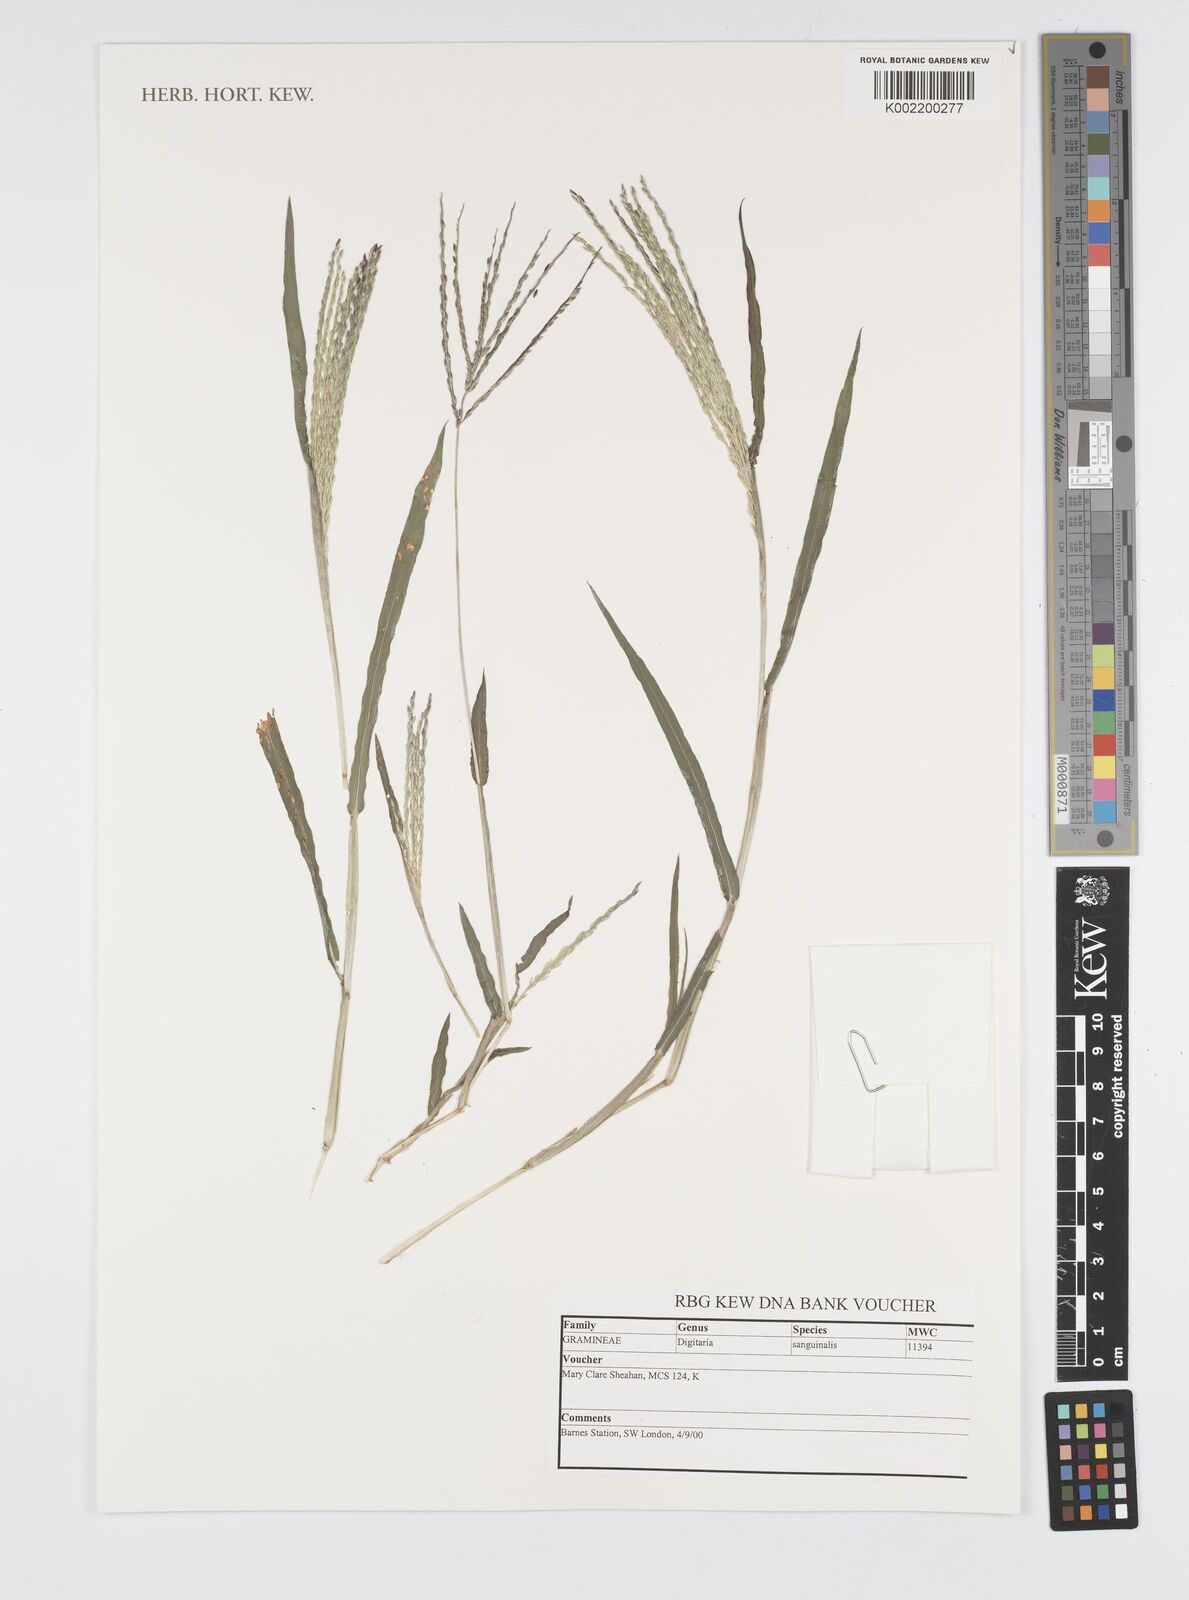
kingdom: Plantae
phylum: Tracheophyta
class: Liliopsida
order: Poales
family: Poaceae
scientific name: Poaceae
